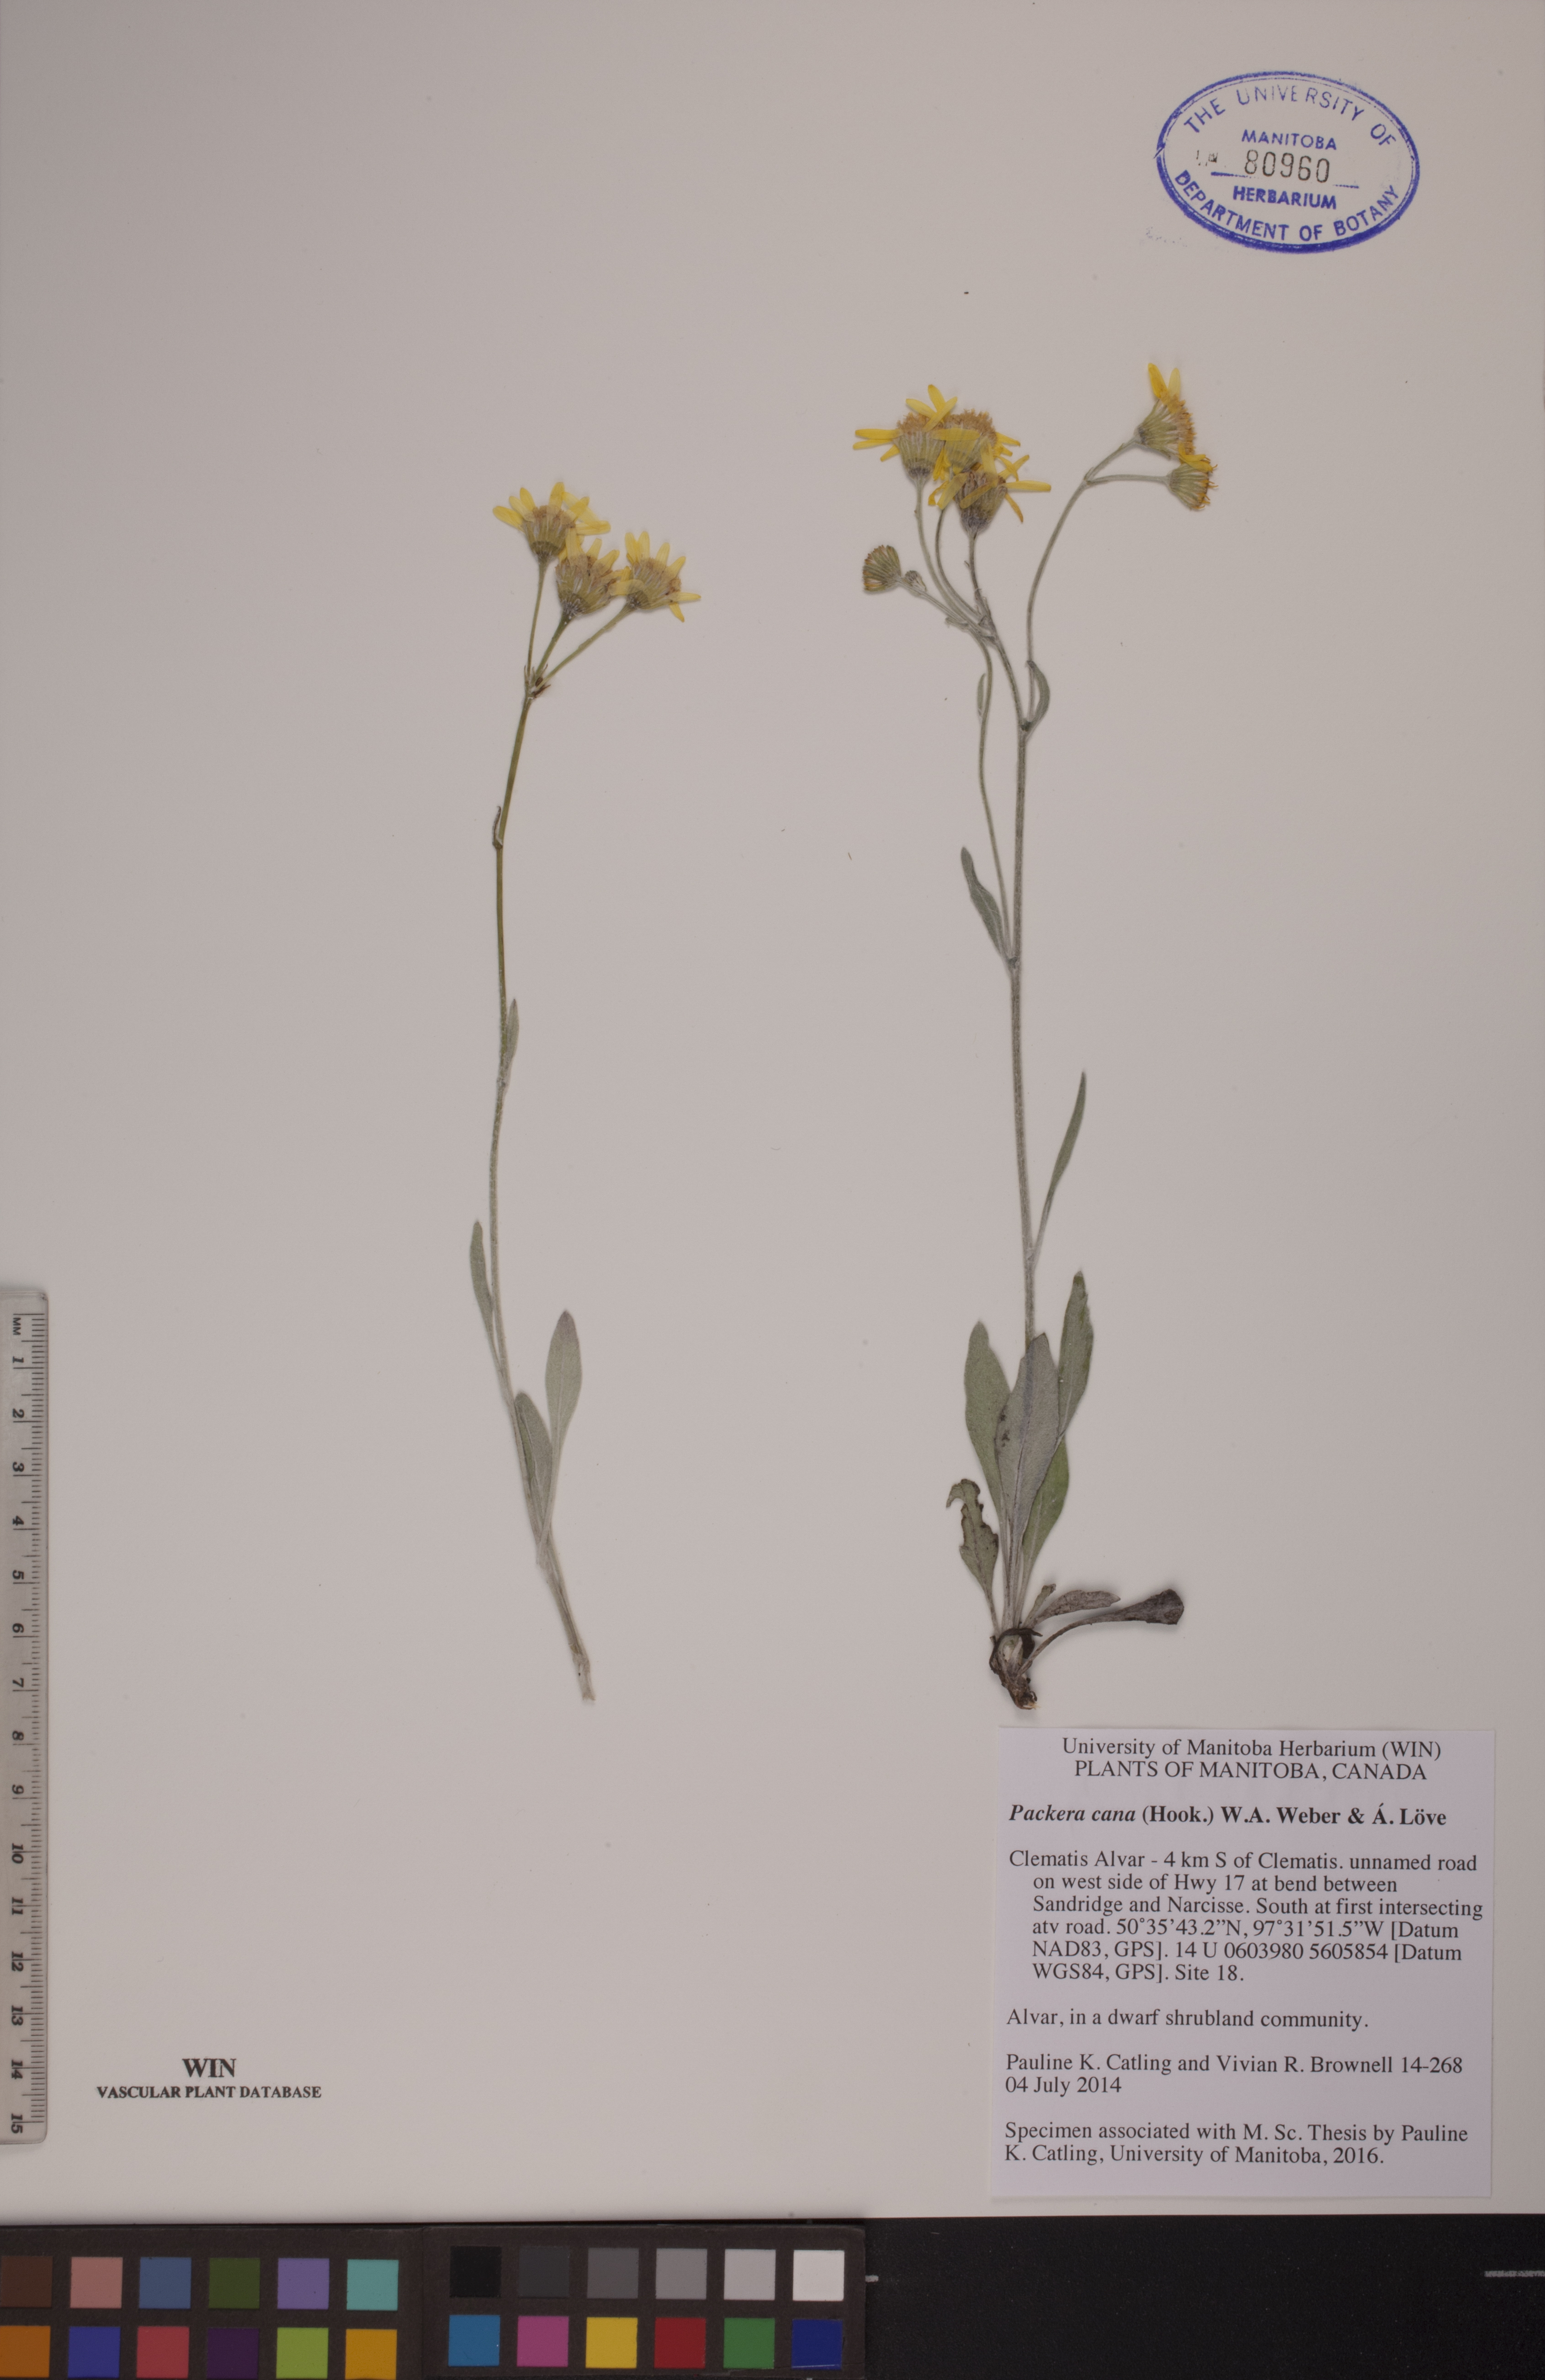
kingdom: Plantae
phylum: Tracheophyta
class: Magnoliopsida
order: Asterales
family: Asteraceae
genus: Packera
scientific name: Packera cana
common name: Woolly groundsel
